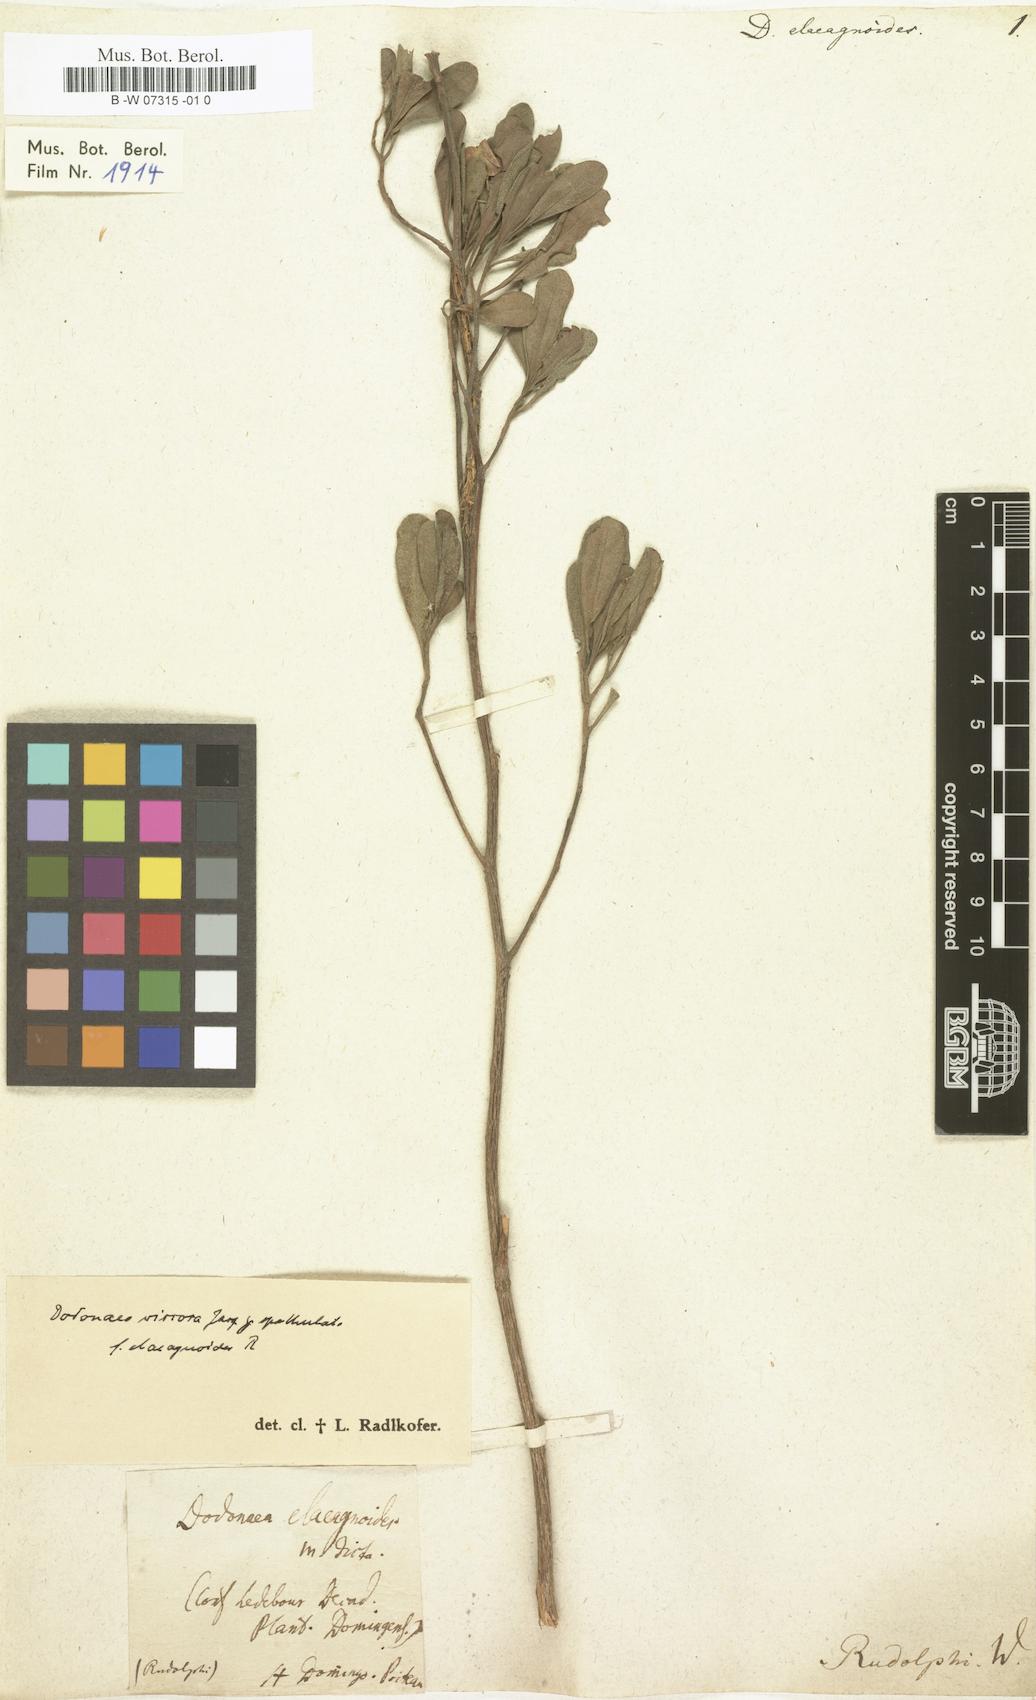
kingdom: Plantae
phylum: Tracheophyta
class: Magnoliopsida
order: Sapindales
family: Sapindaceae
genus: Dodonaea
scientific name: Dodonaea viscosa
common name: Hopbush
